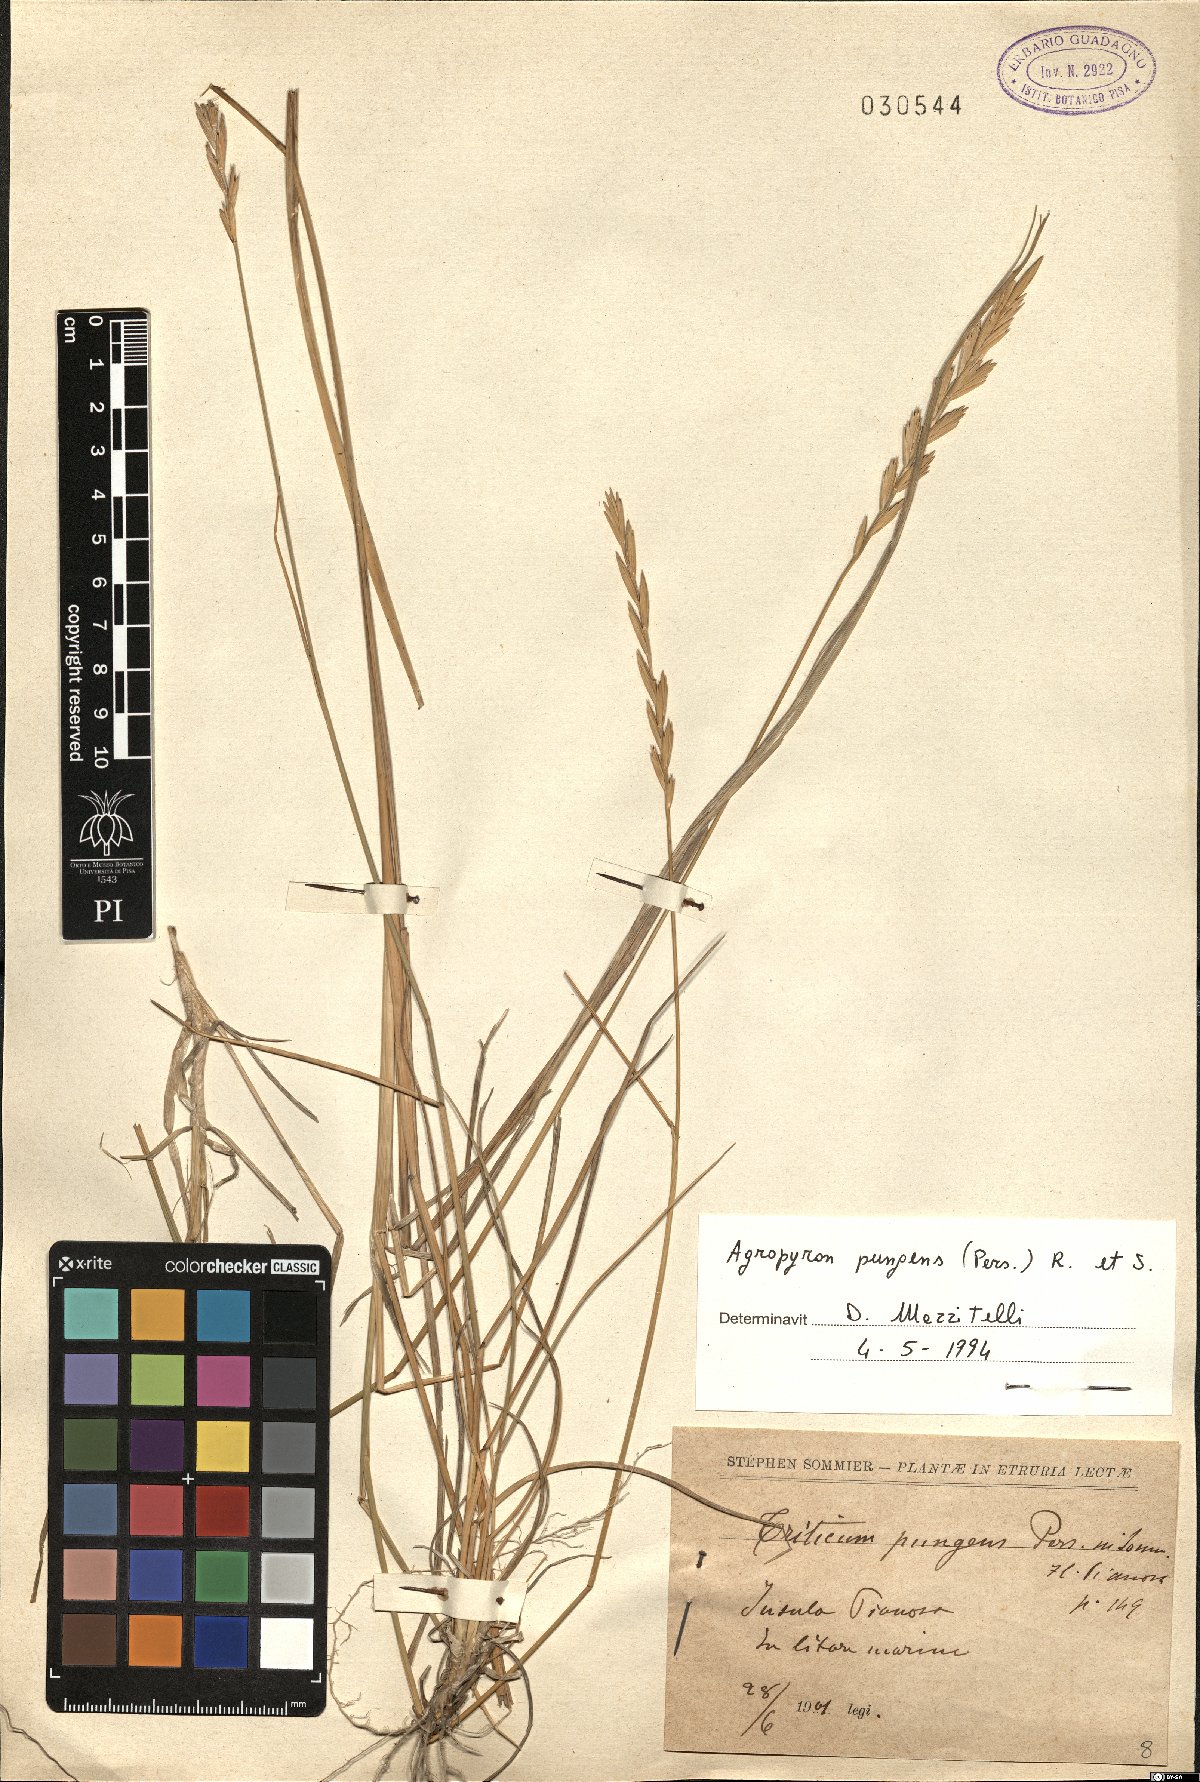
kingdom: Plantae
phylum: Tracheophyta
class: Liliopsida
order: Poales
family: Poaceae
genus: Elymus
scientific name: Elymus pungens
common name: Sea couch
